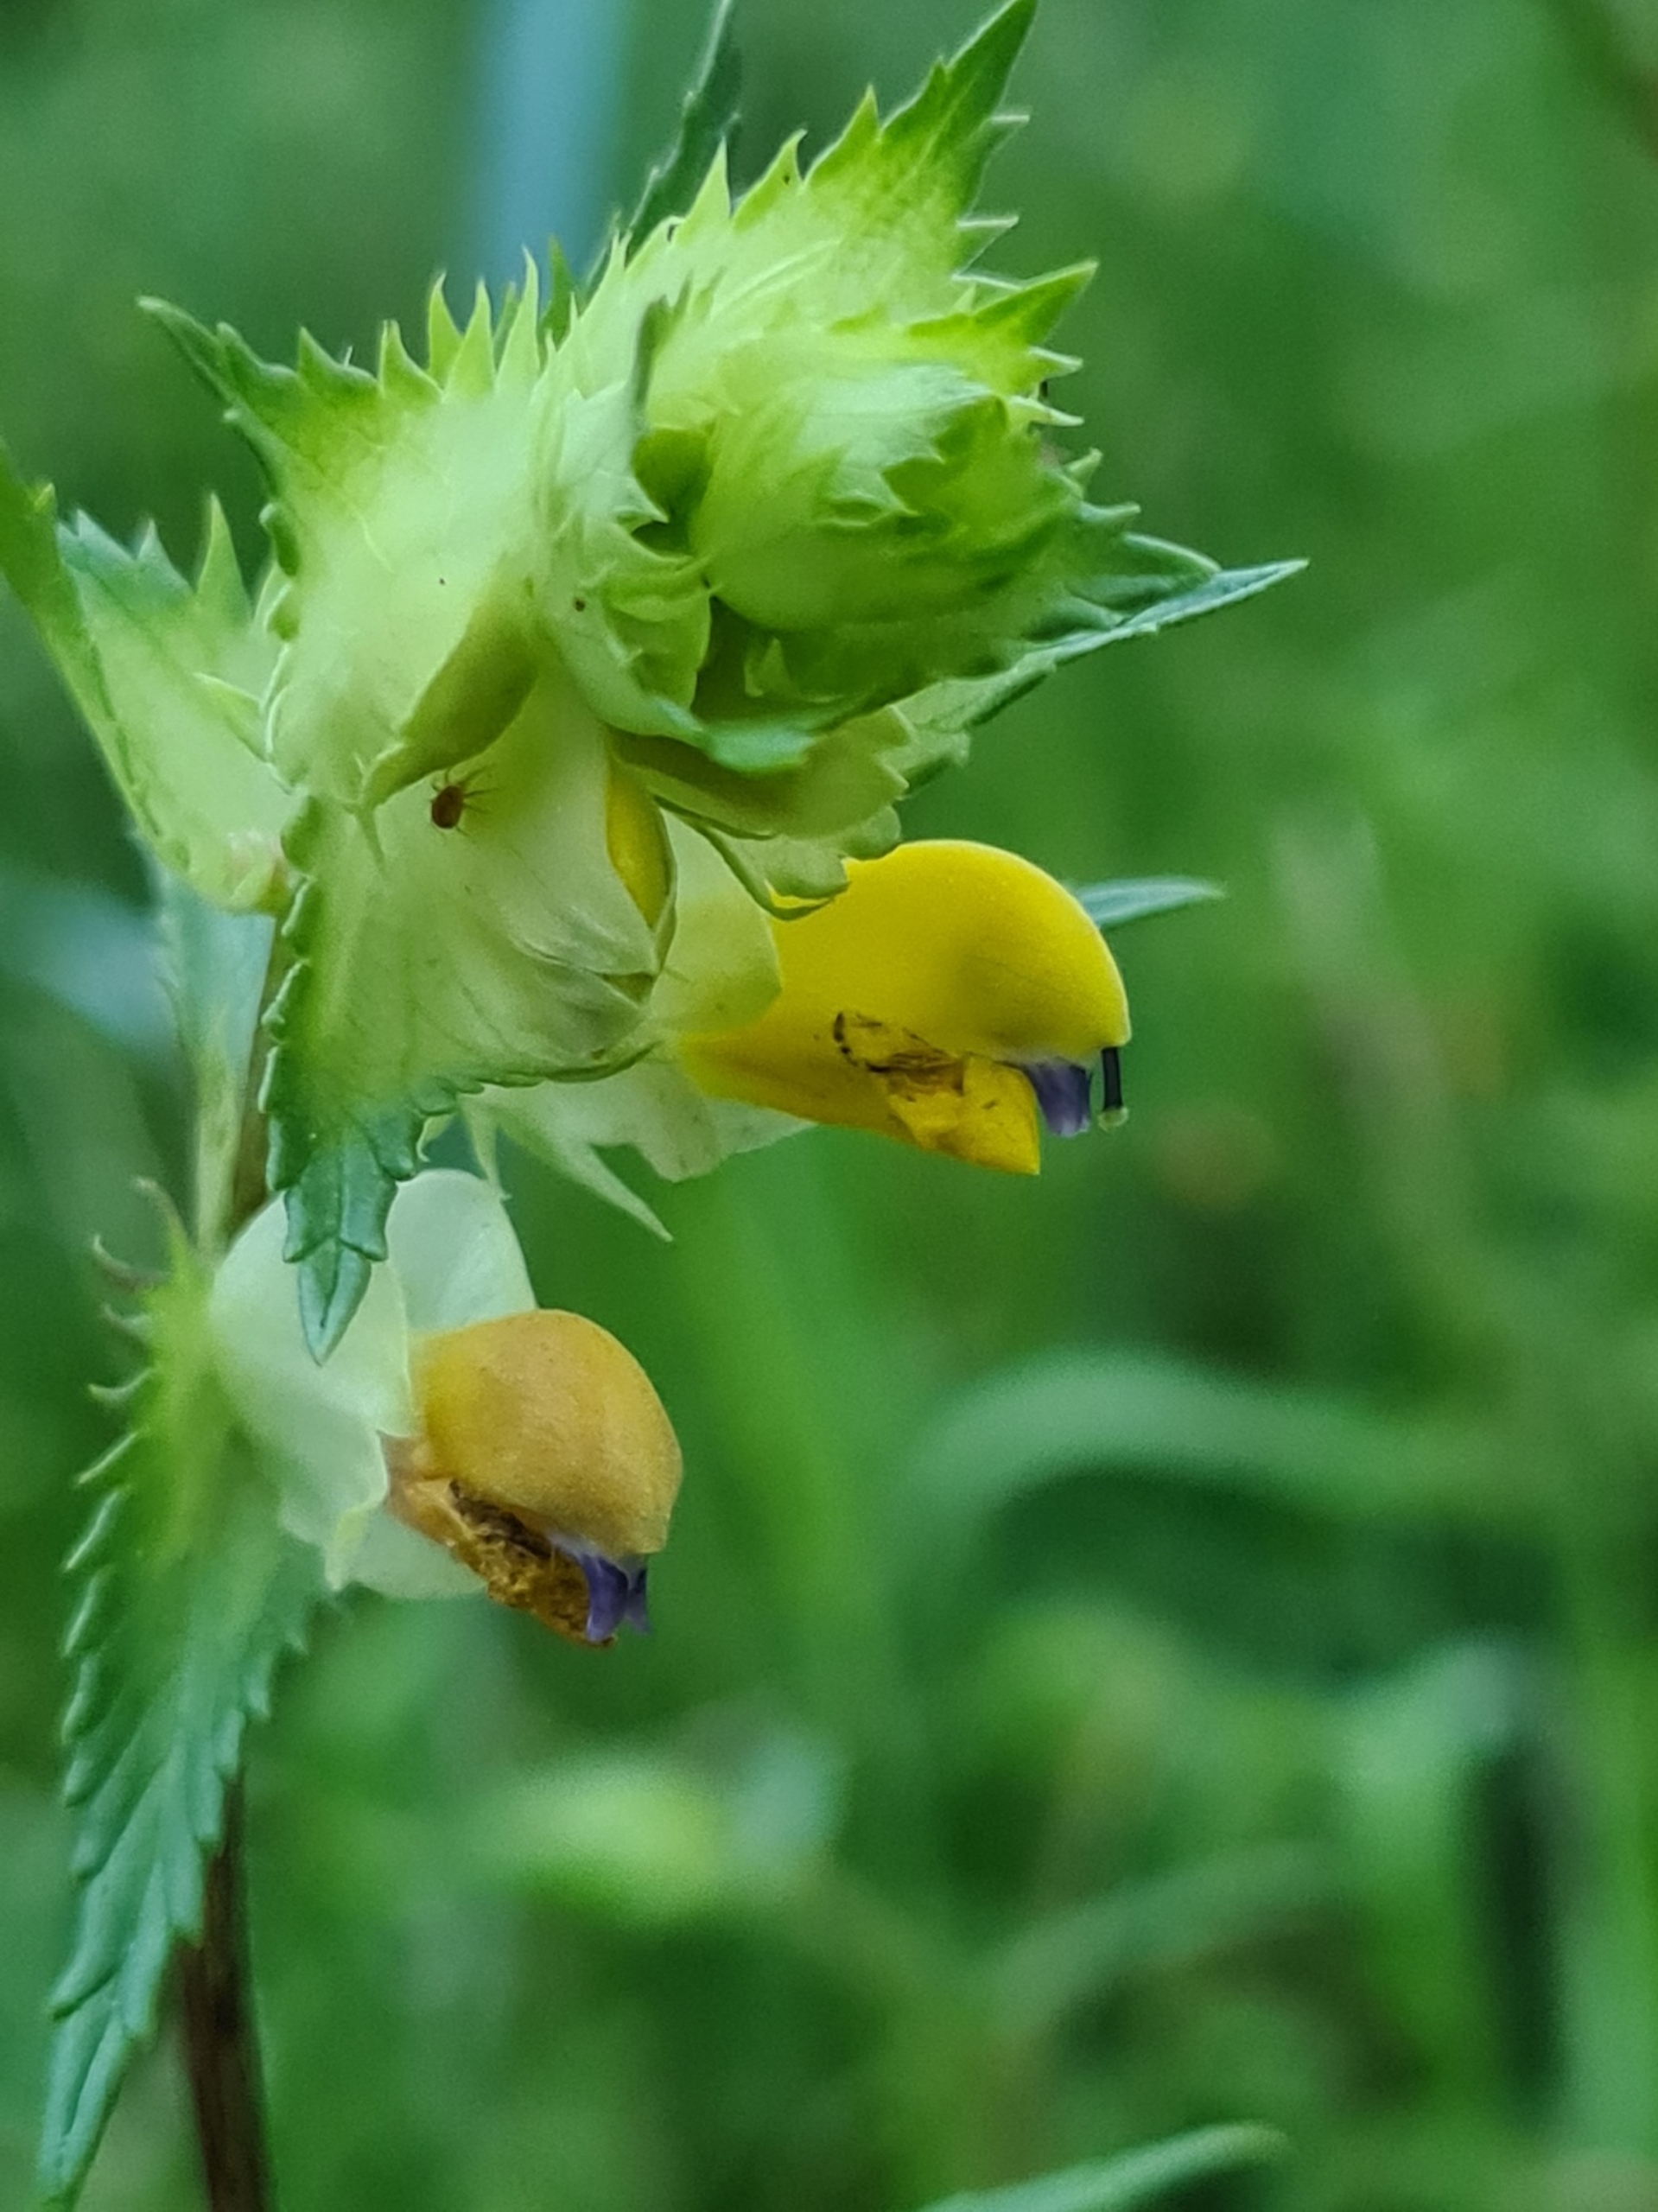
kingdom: Plantae
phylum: Tracheophyta
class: Magnoliopsida
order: Lamiales
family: Orobanchaceae
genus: Rhinanthus
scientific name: Rhinanthus
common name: Stor skjaller
